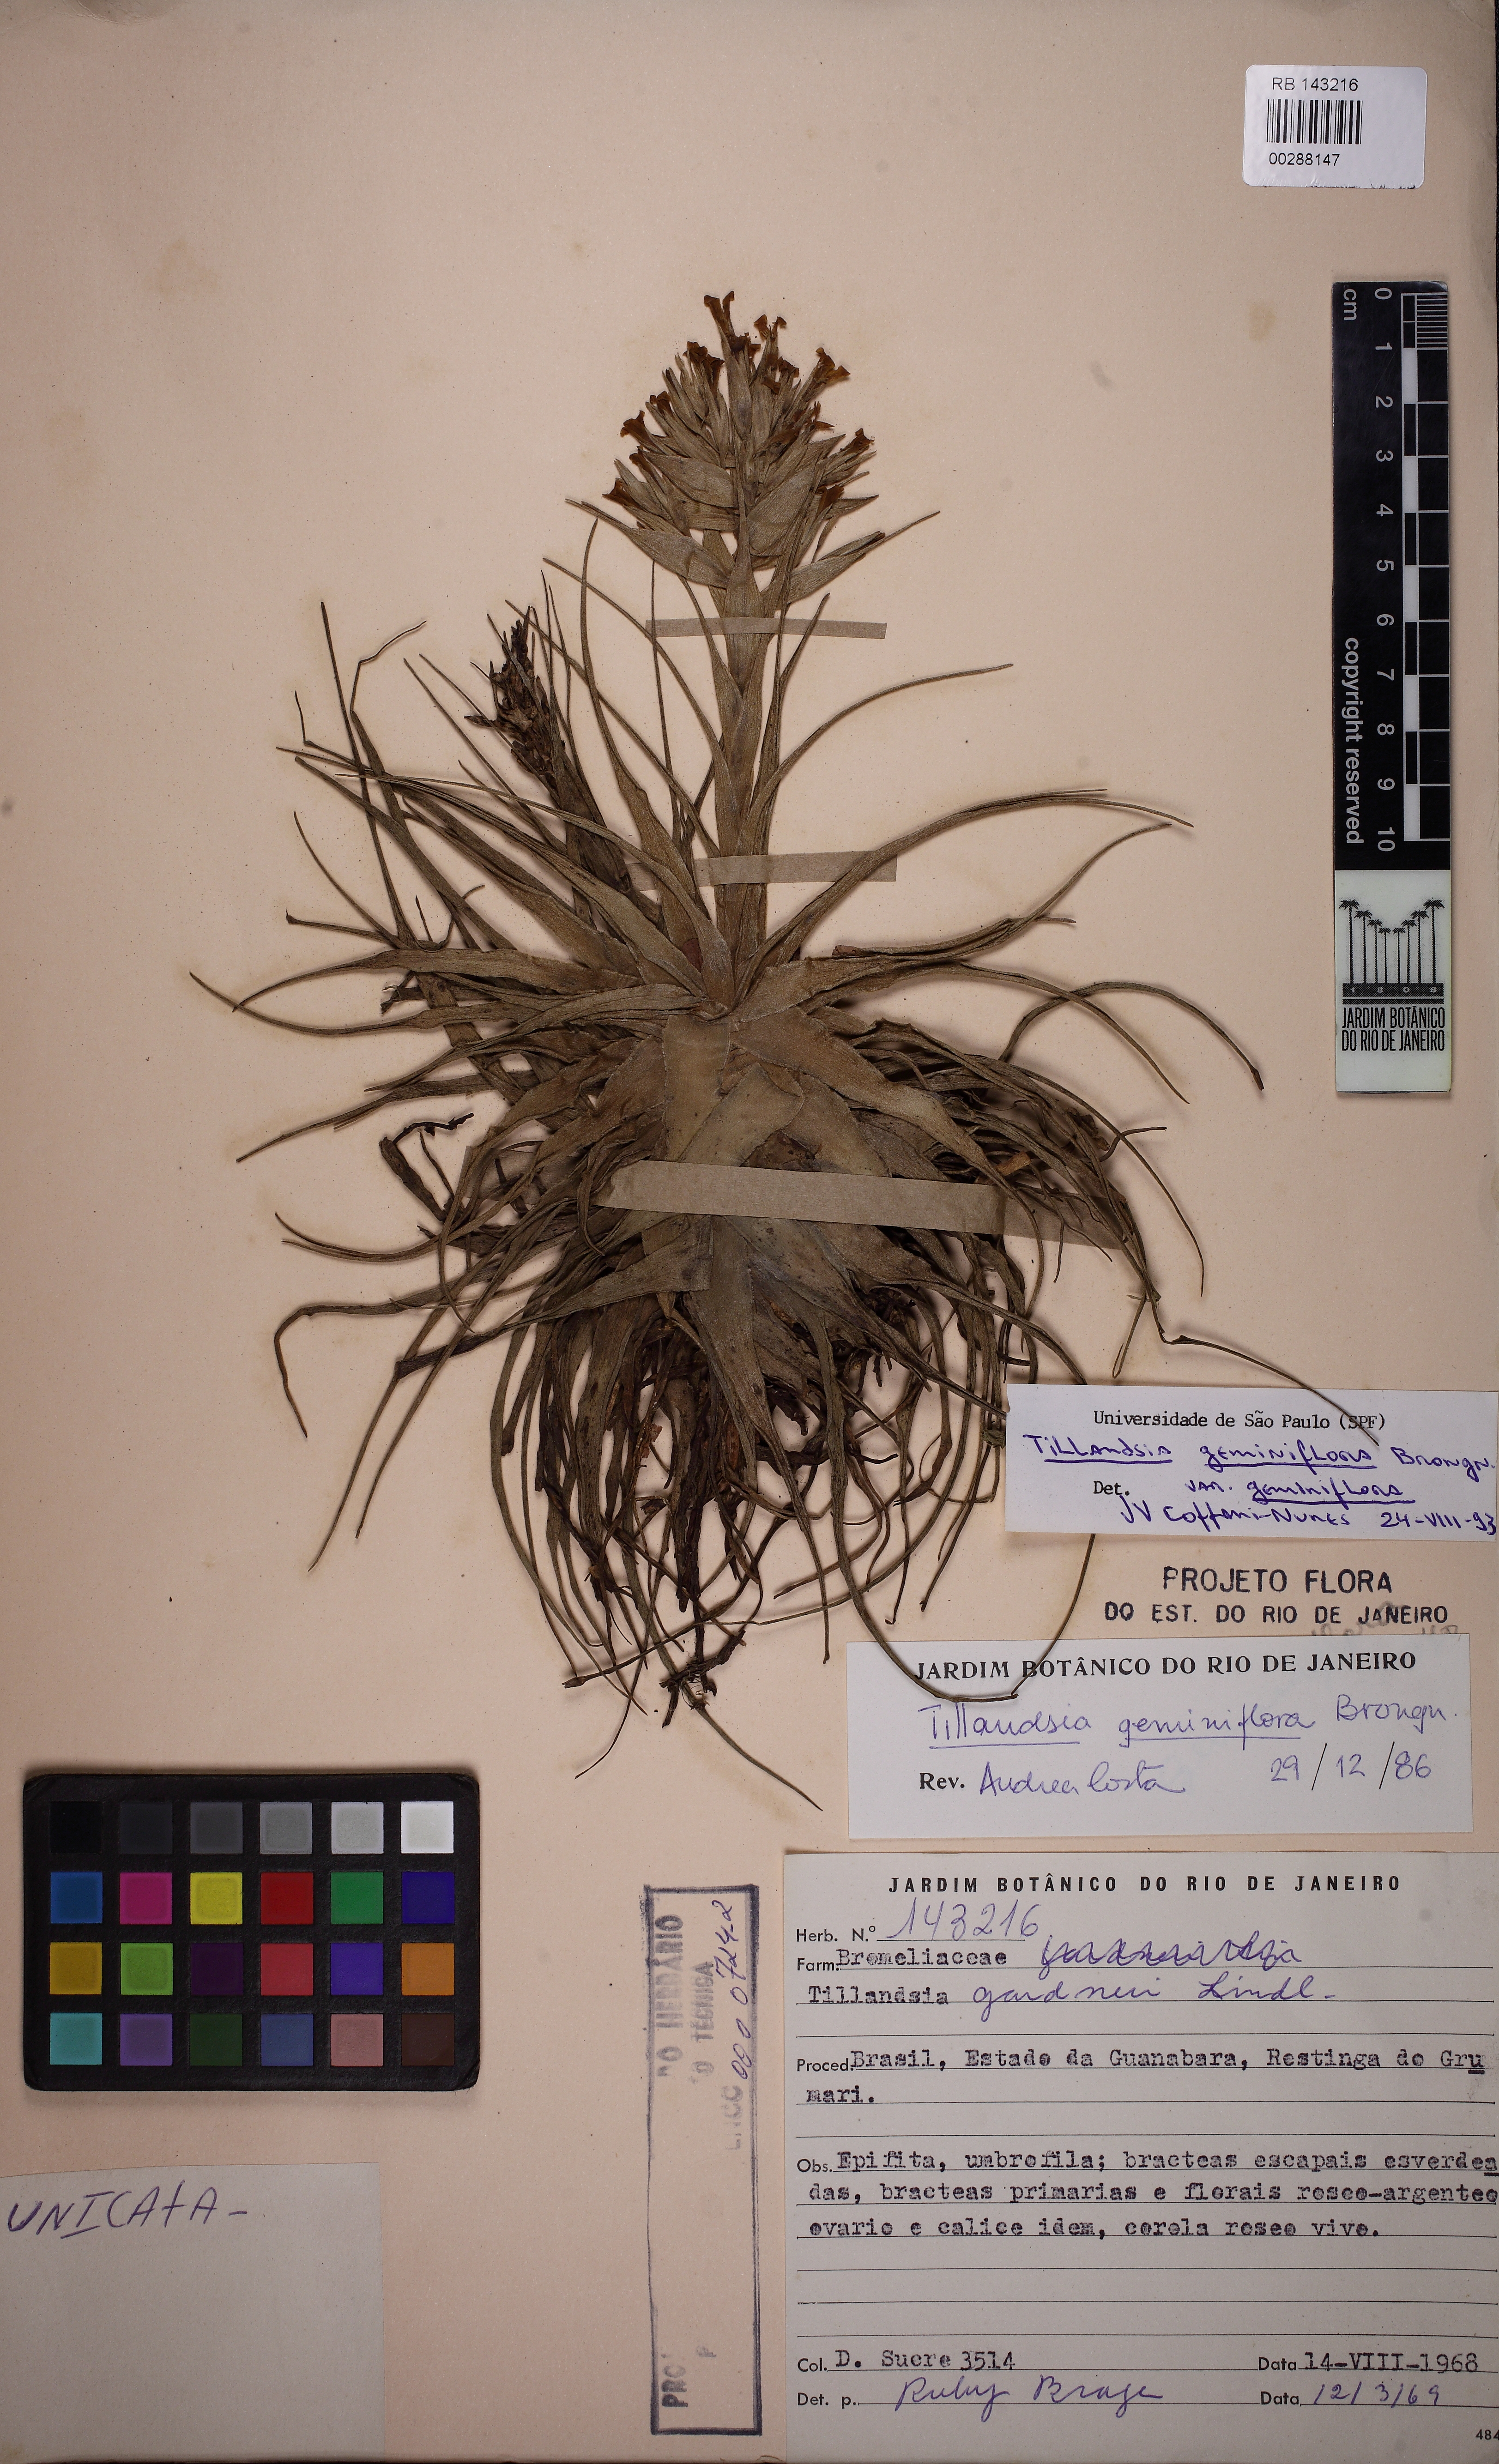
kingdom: Plantae
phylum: Tracheophyta
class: Liliopsida
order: Poales
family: Bromeliaceae
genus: Tillandsia
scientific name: Tillandsia geminiflora
